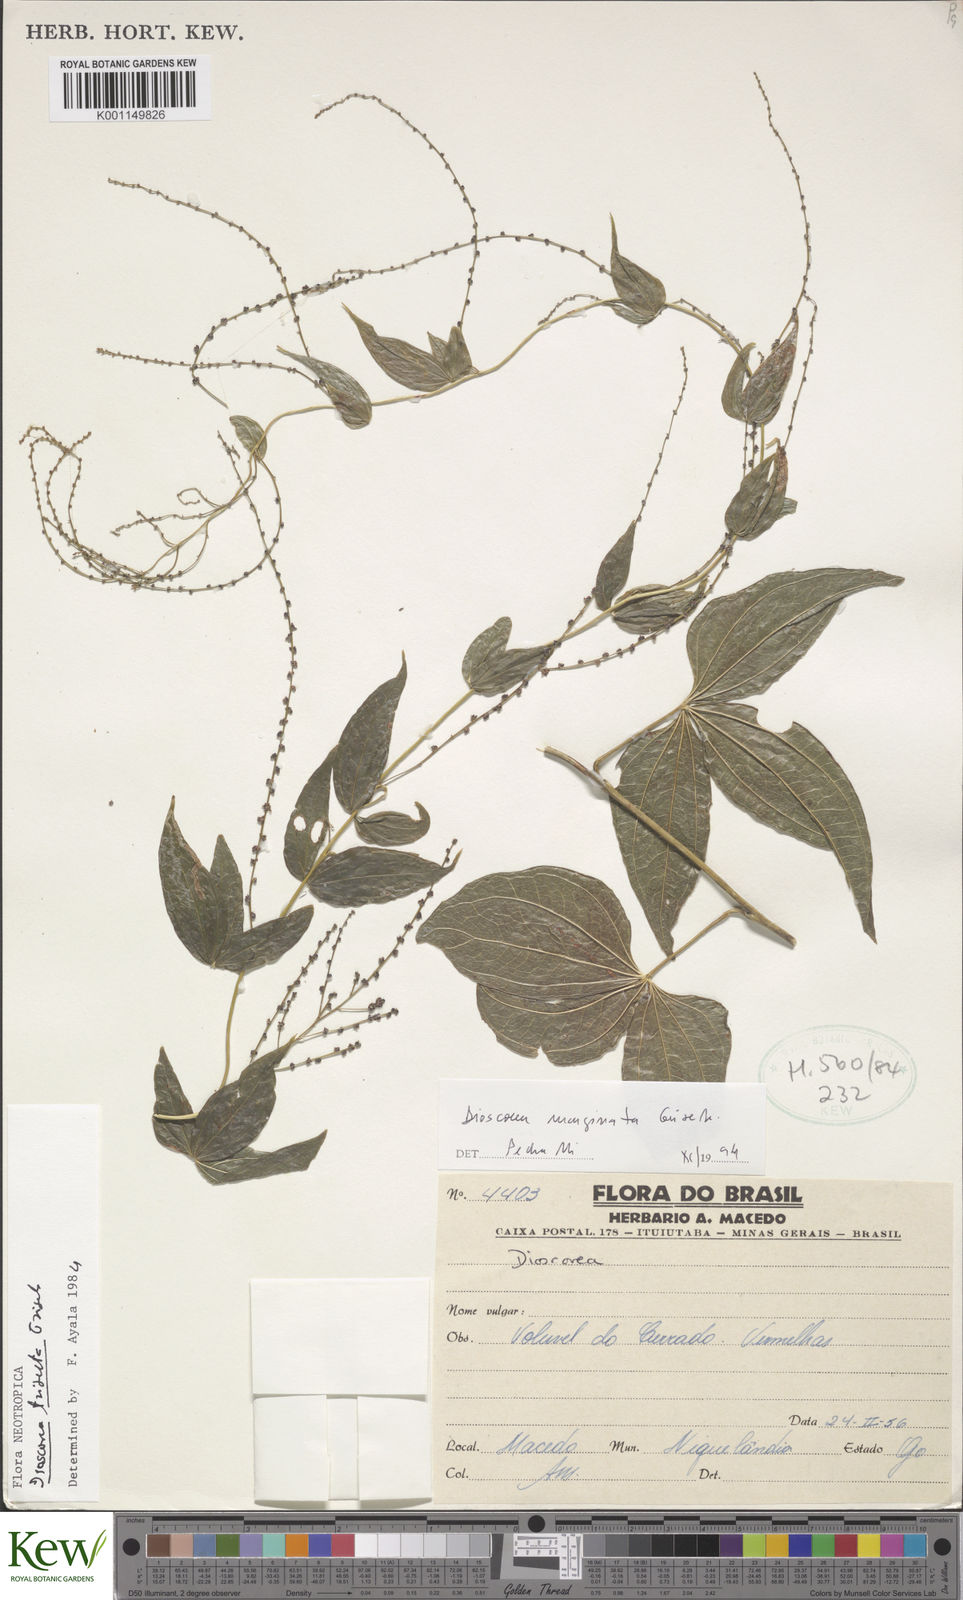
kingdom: Plantae
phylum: Tracheophyta
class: Liliopsida
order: Dioscoreales
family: Dioscoreaceae
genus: Dioscorea
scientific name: Dioscorea trisecta
